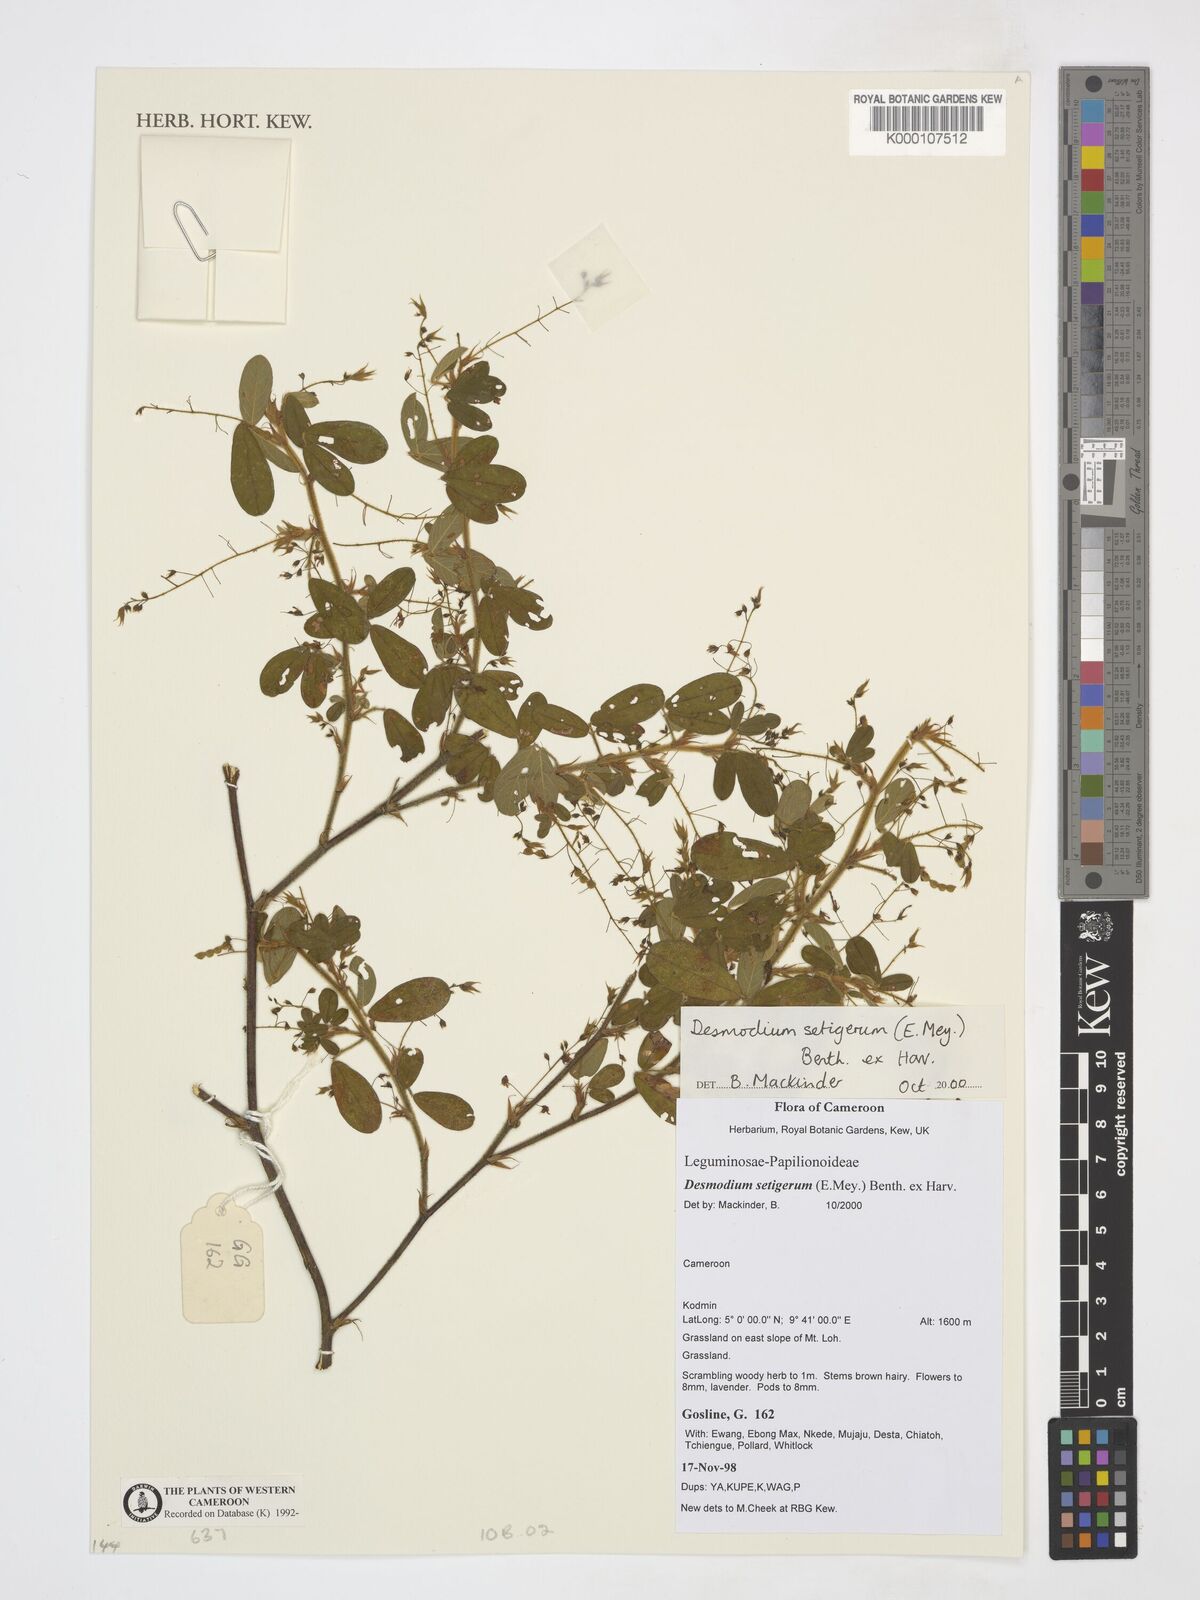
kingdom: Plantae
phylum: Tracheophyta
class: Magnoliopsida
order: Fabales
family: Fabaceae
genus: Grona
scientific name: Grona setigera
